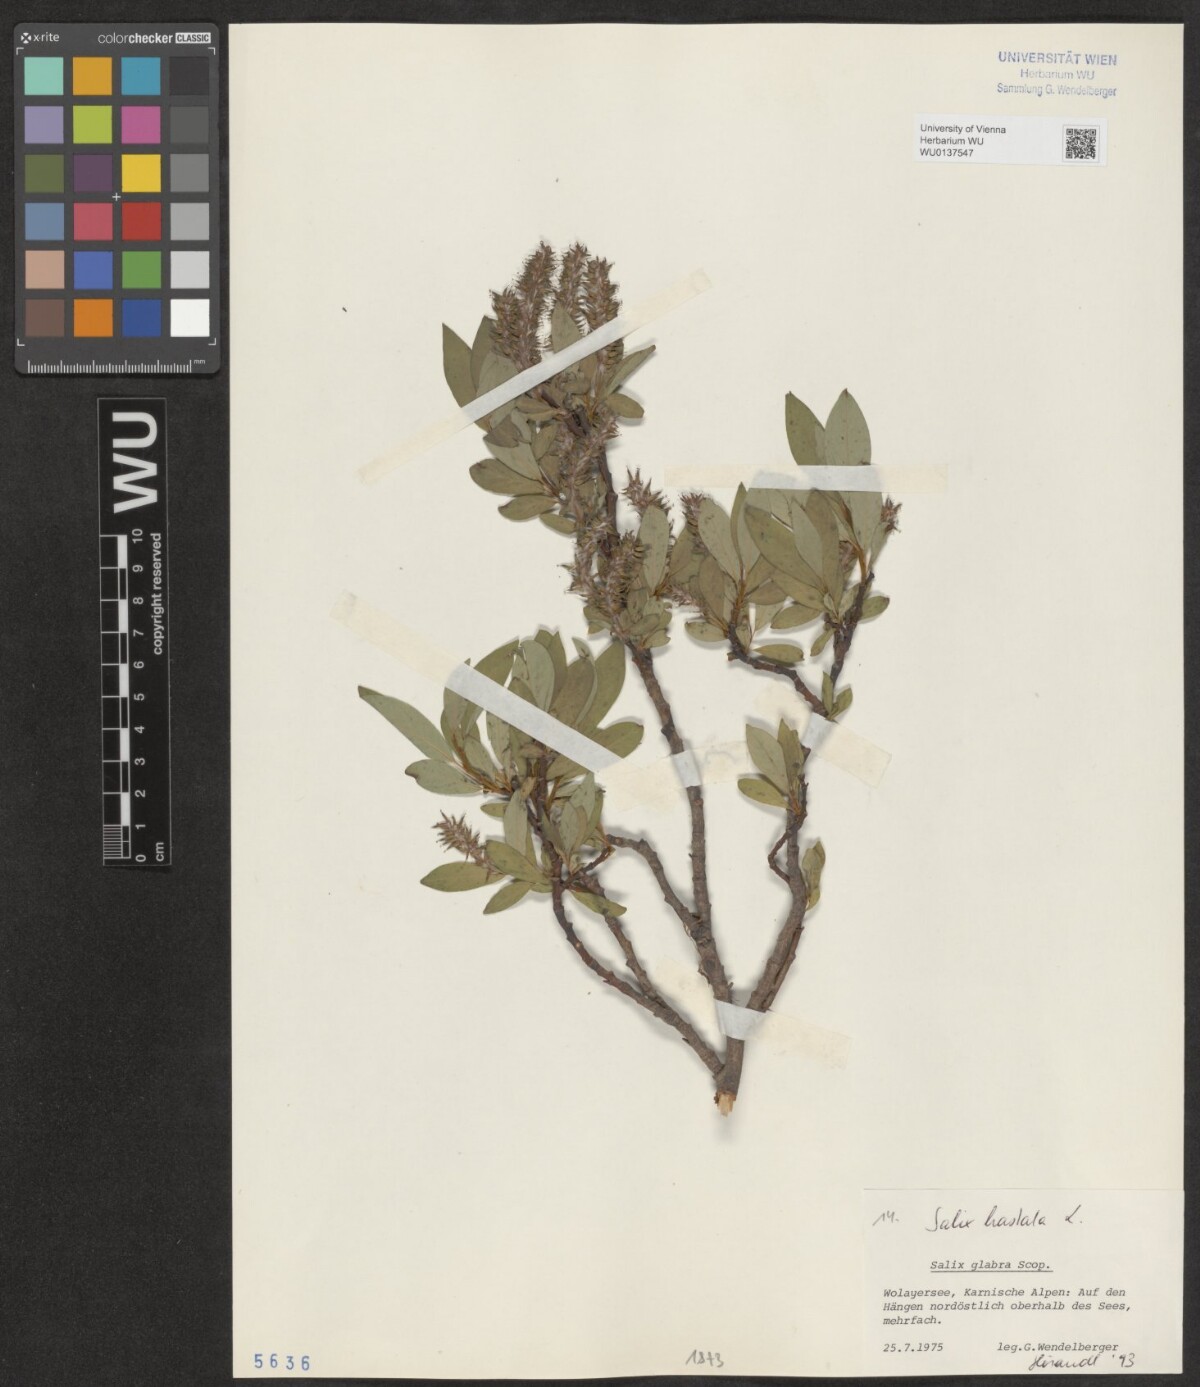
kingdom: Plantae
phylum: Tracheophyta
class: Magnoliopsida
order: Malpighiales
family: Salicaceae
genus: Salix
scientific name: Salix hastata
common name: Halberd willow
